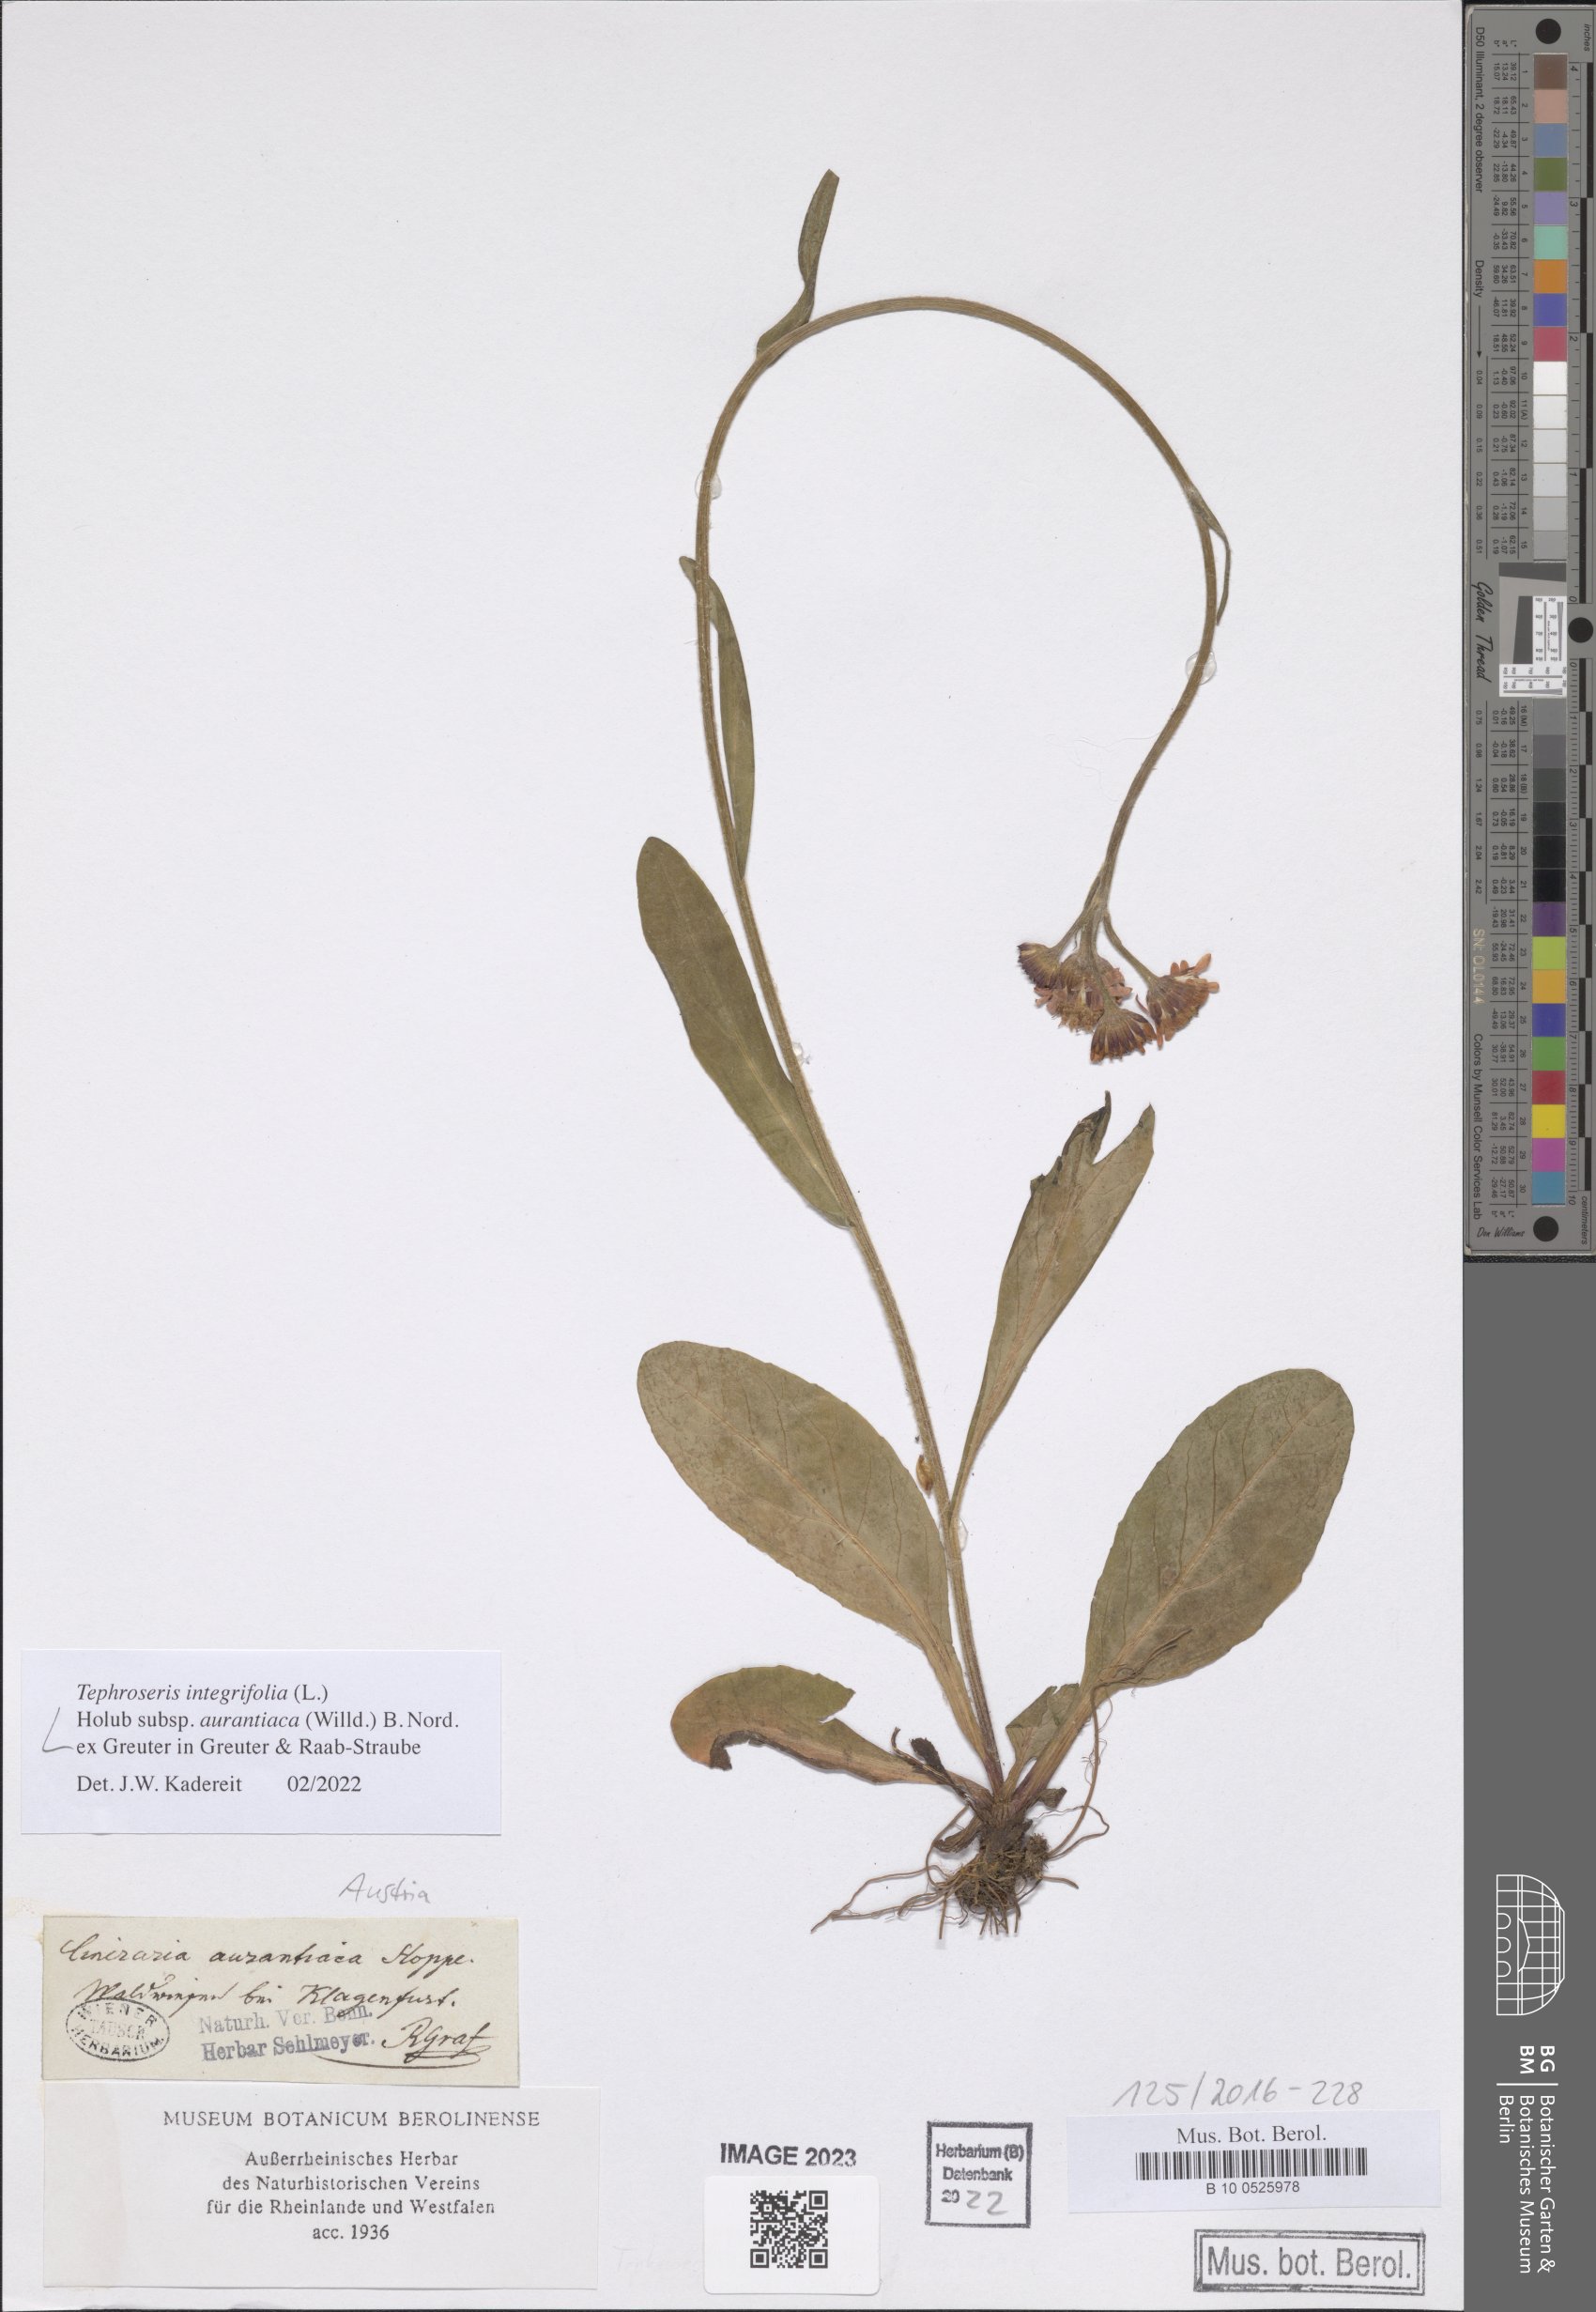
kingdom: Plantae
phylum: Tracheophyta
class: Magnoliopsida
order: Asterales
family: Asteraceae
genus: Tephroseris
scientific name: Tephroseris aurantiaca
